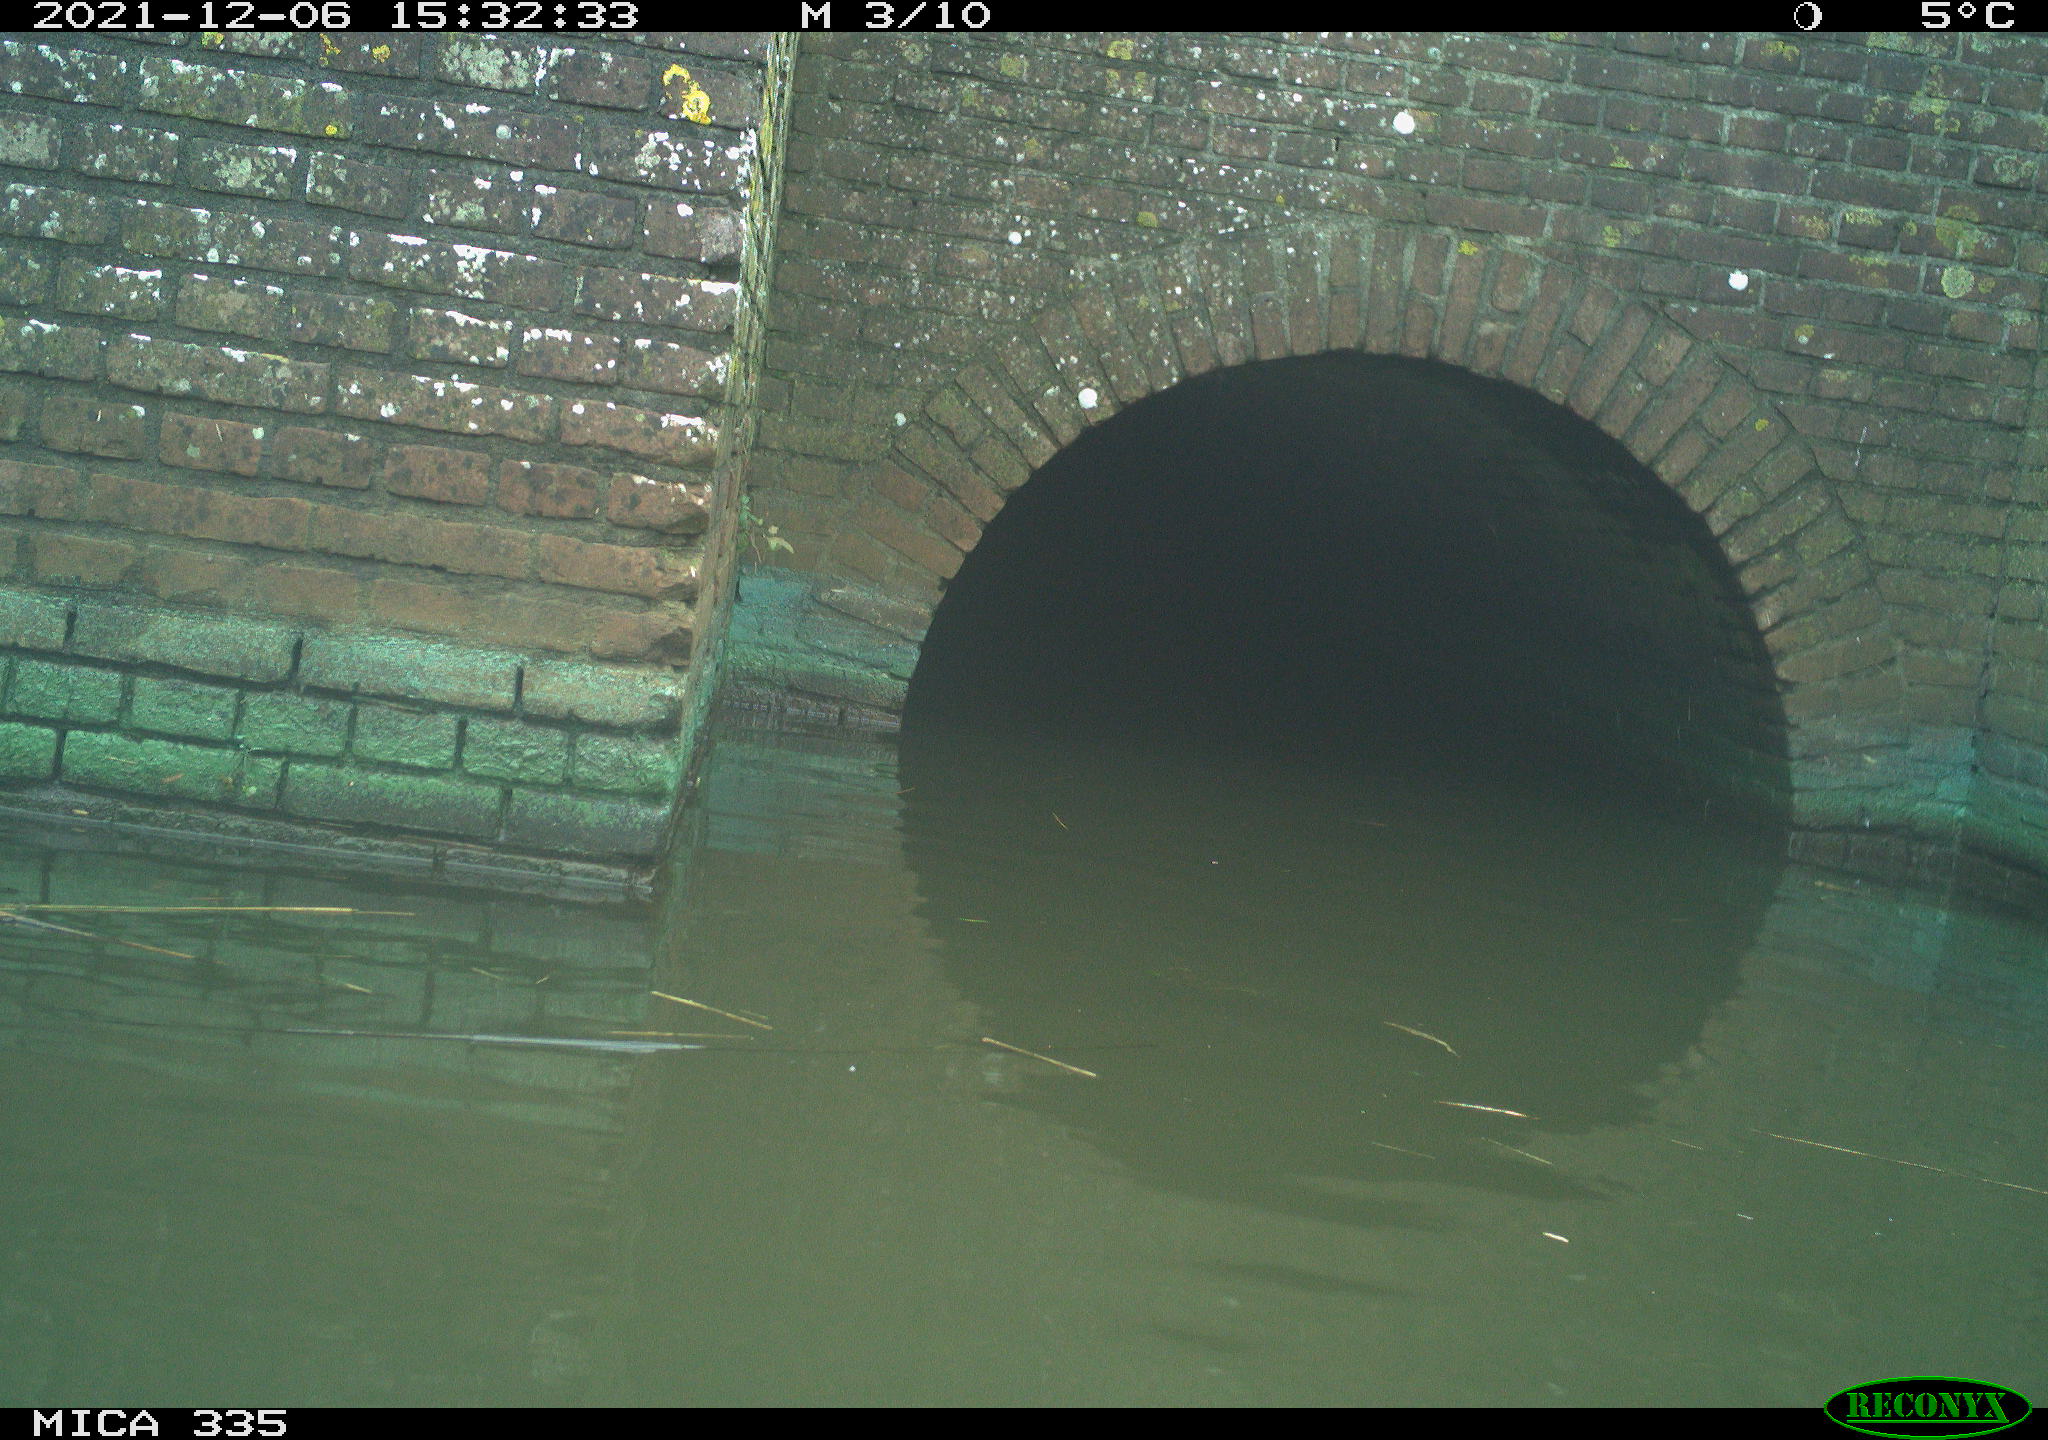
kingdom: Animalia
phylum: Chordata
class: Aves
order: Gruiformes
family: Rallidae
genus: Gallinula
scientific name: Gallinula chloropus
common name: Common moorhen
